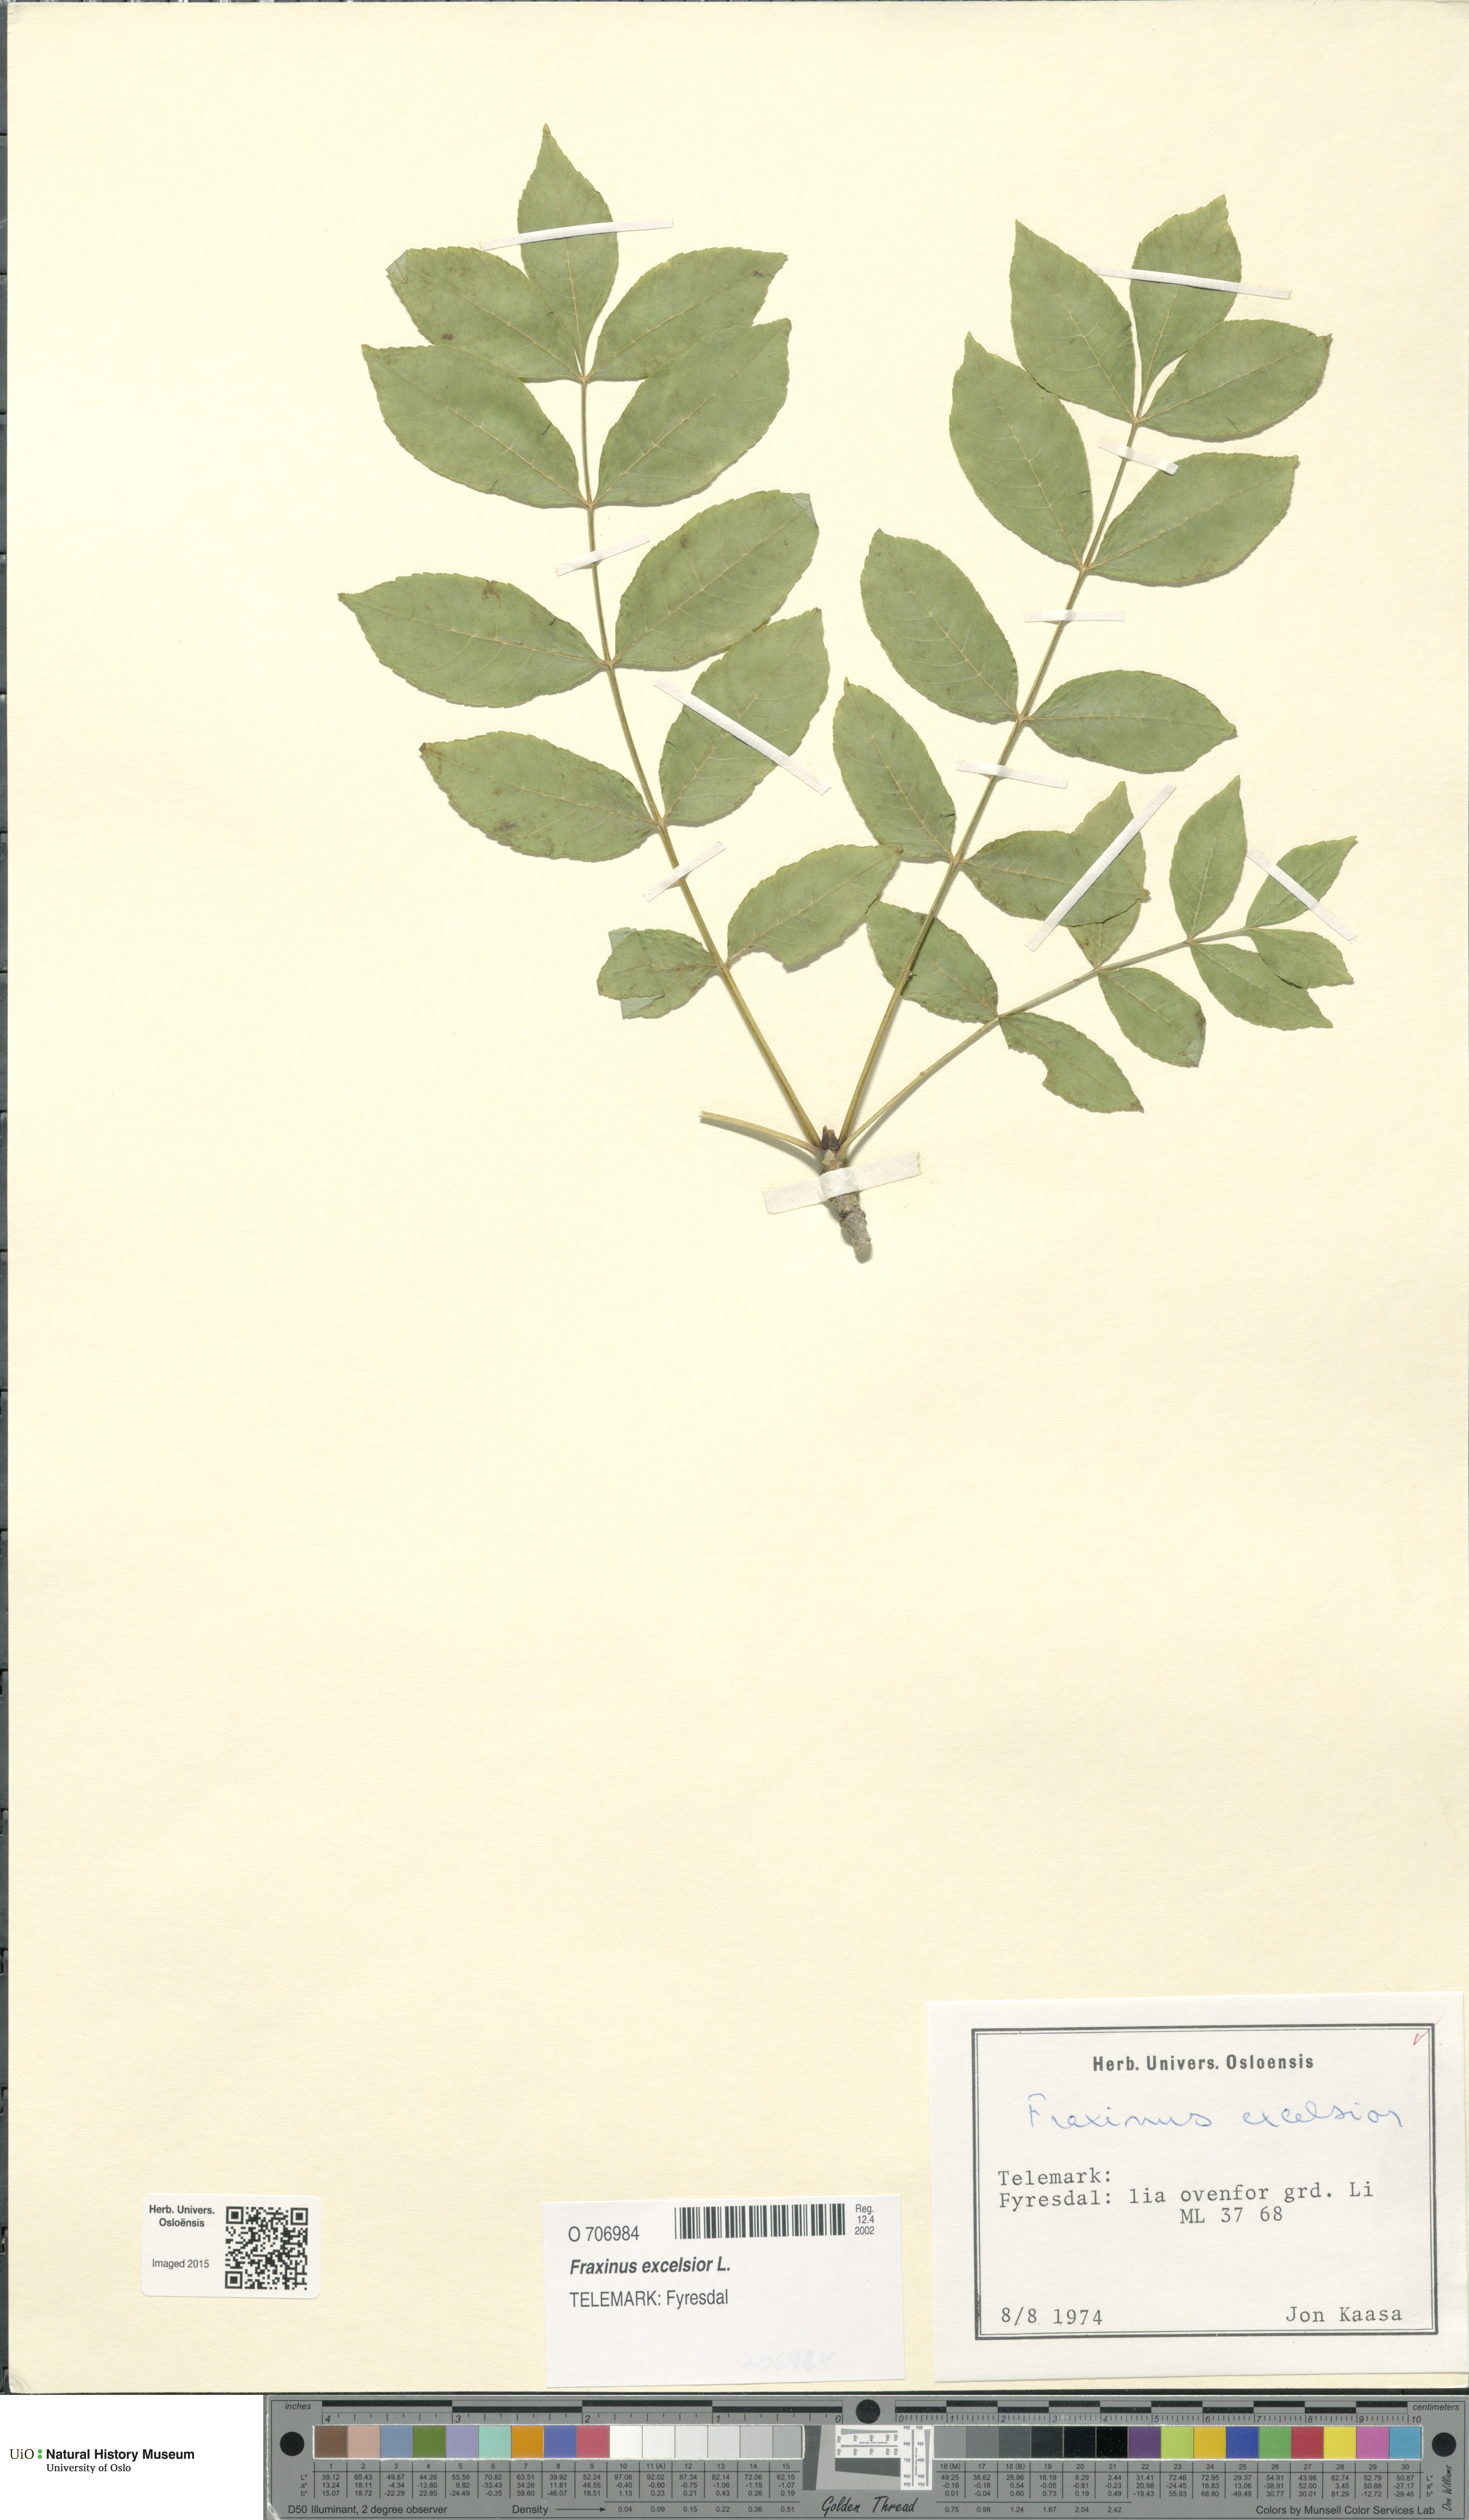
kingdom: Plantae
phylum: Tracheophyta
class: Magnoliopsida
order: Lamiales
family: Oleaceae
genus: Fraxinus
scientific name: Fraxinus excelsior
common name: European ash
